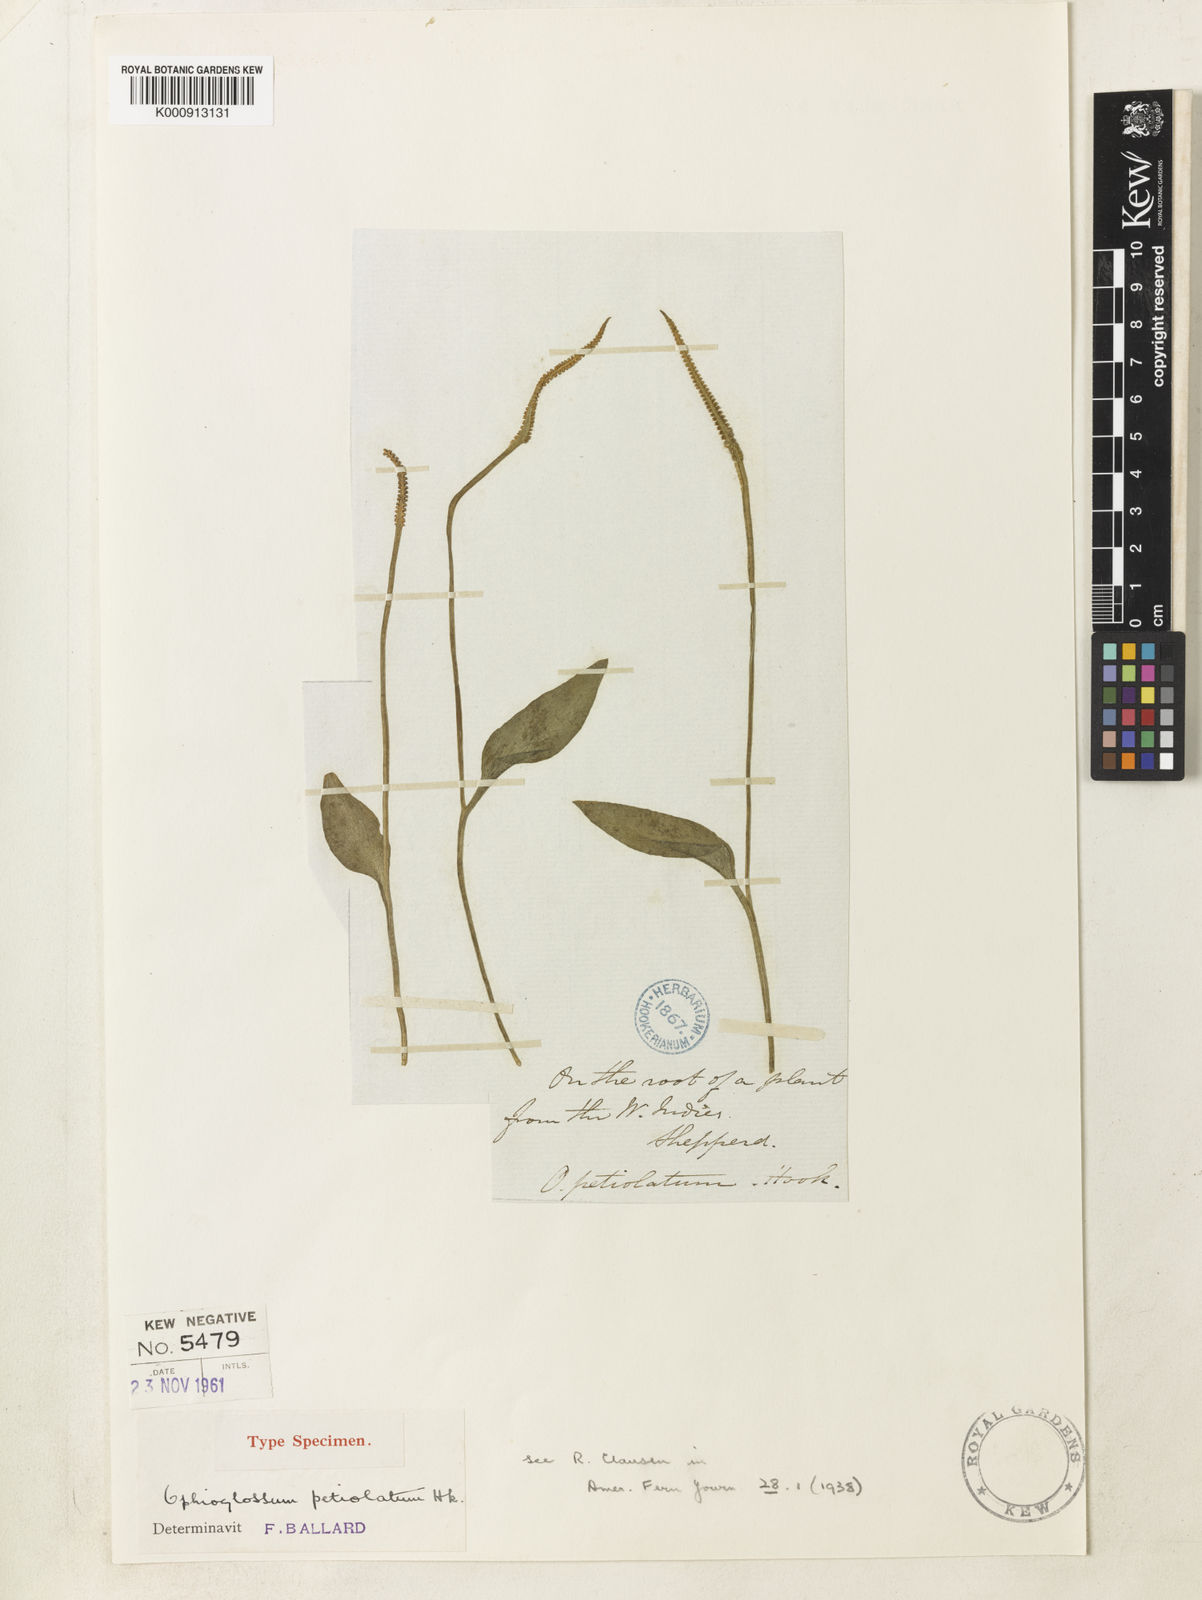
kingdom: Plantae
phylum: Tracheophyta
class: Polypodiopsida
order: Ophioglossales
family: Ophioglossaceae
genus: Ophioglossum
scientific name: Ophioglossum petiolatum
